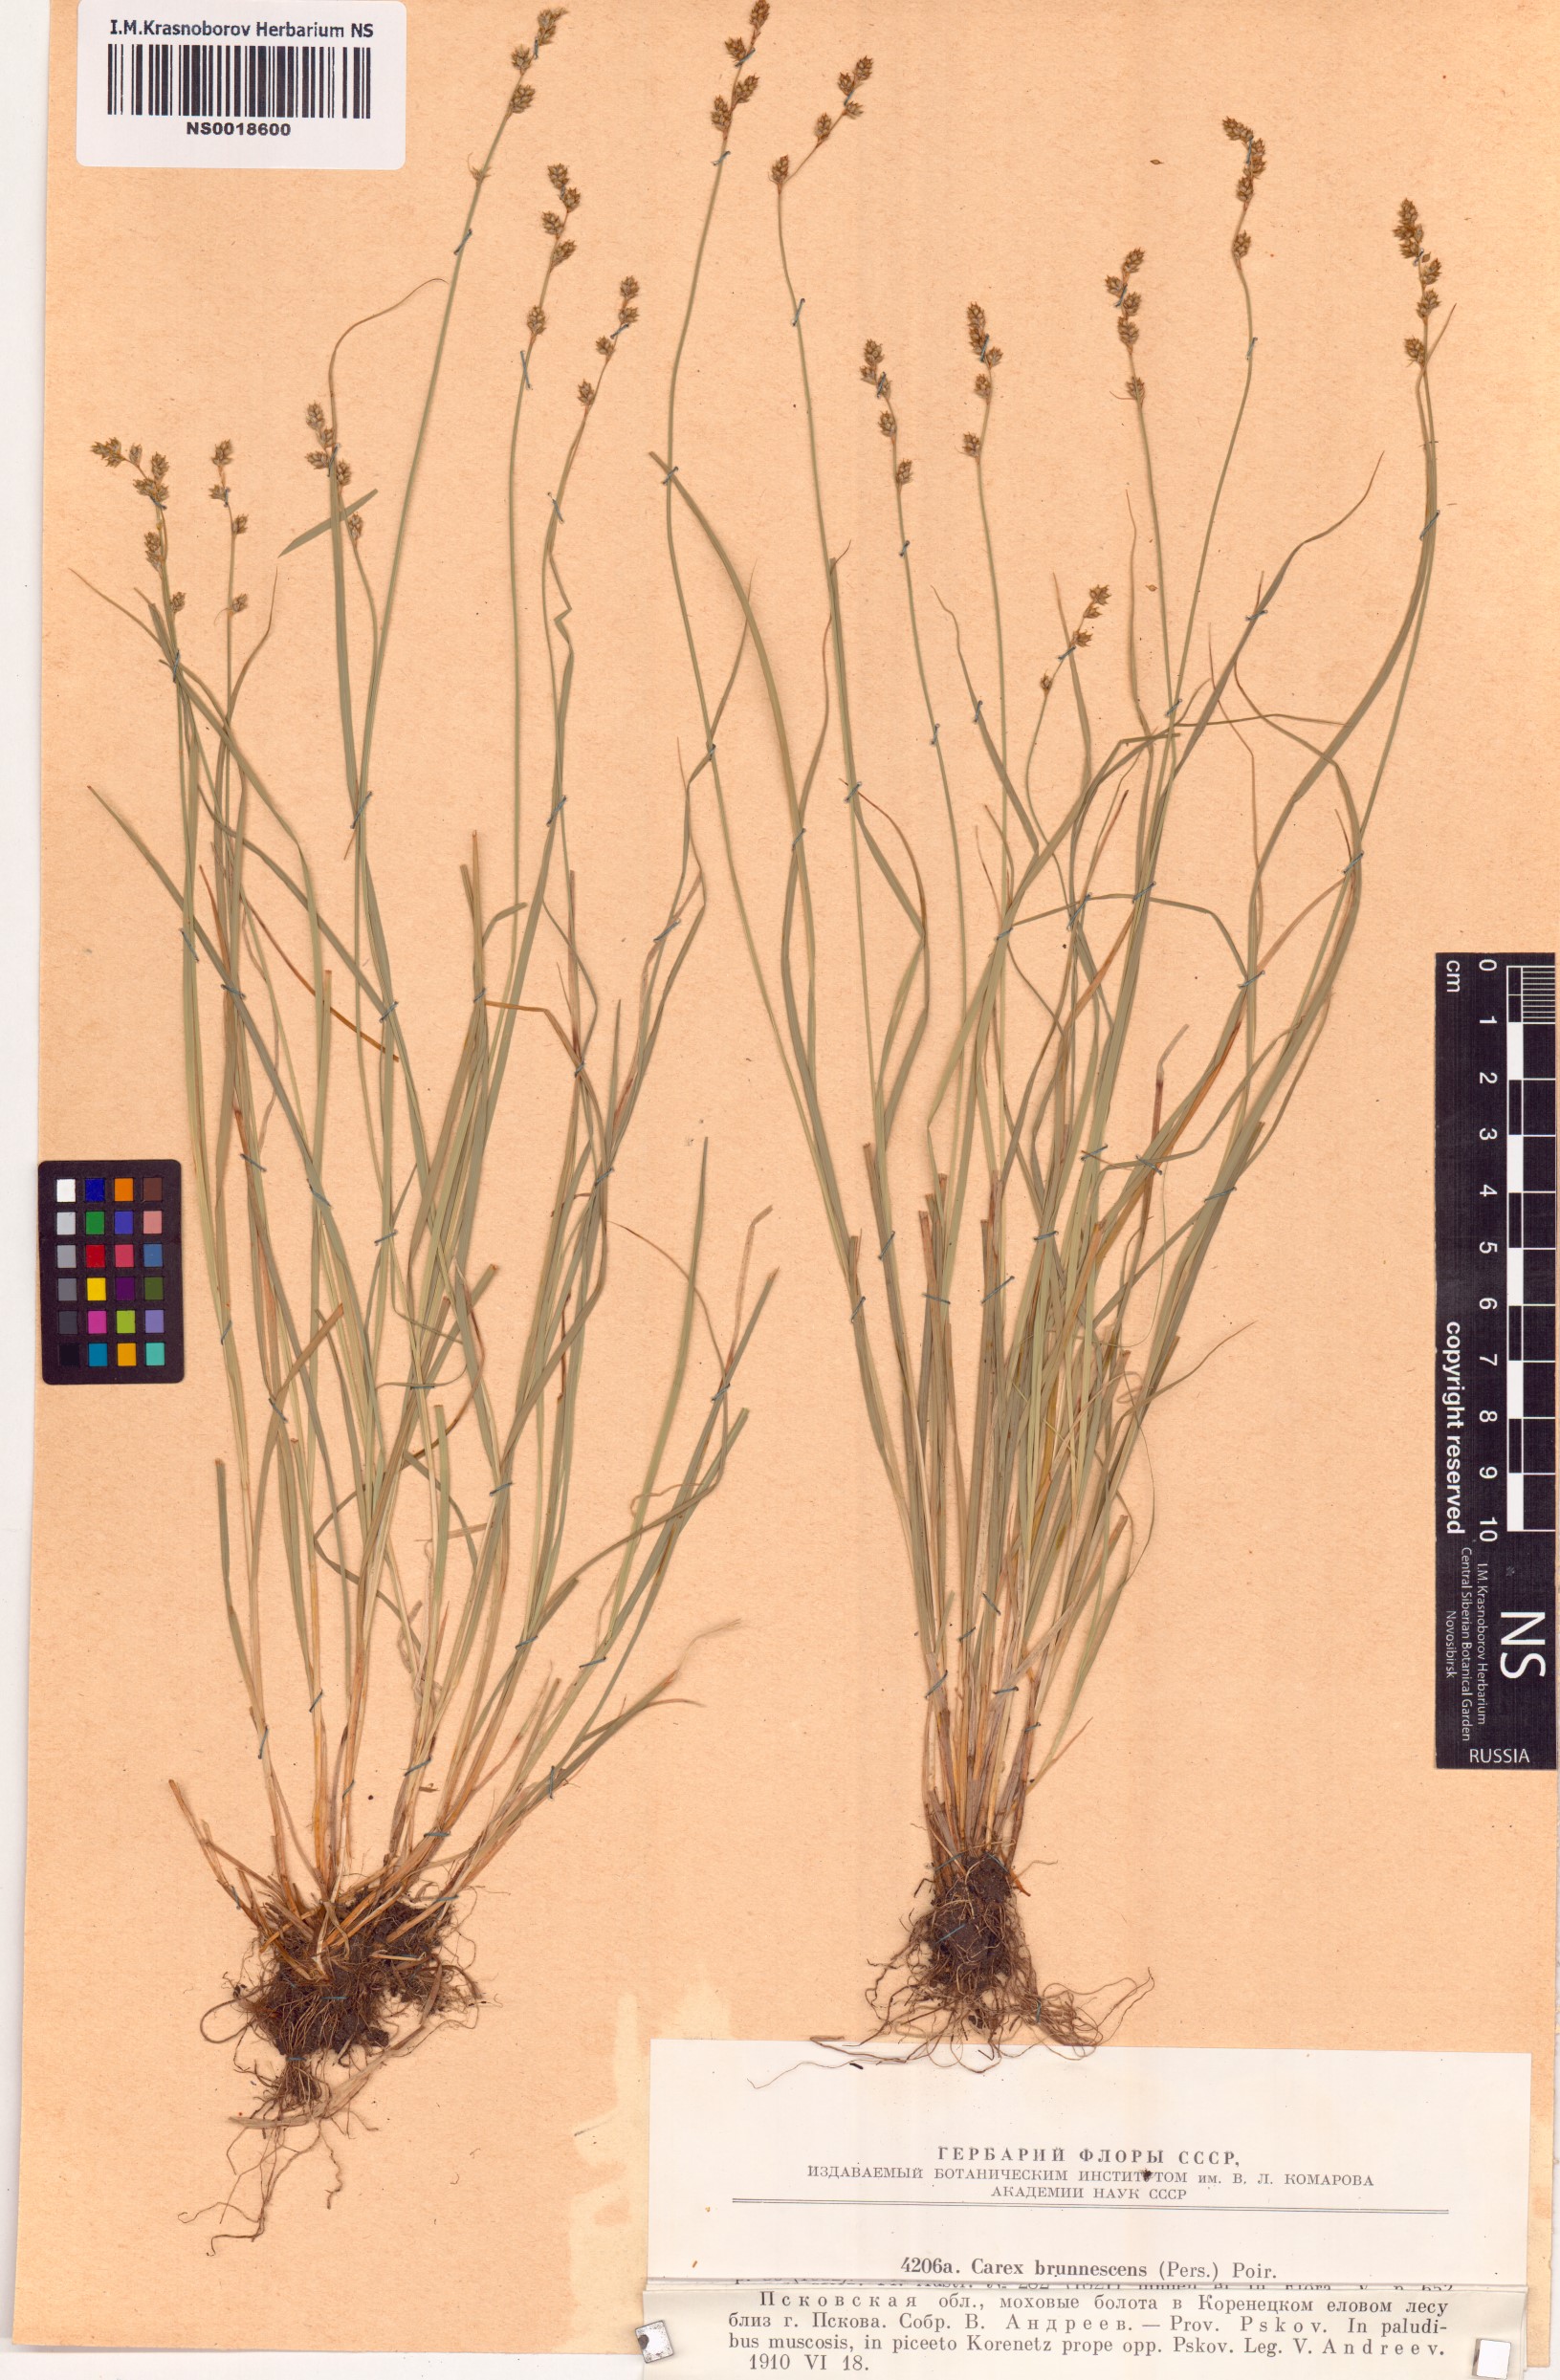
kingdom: Plantae
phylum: Tracheophyta
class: Liliopsida
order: Poales
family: Cyperaceae
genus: Carex
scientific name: Carex brunnescens
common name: Brown sedge
